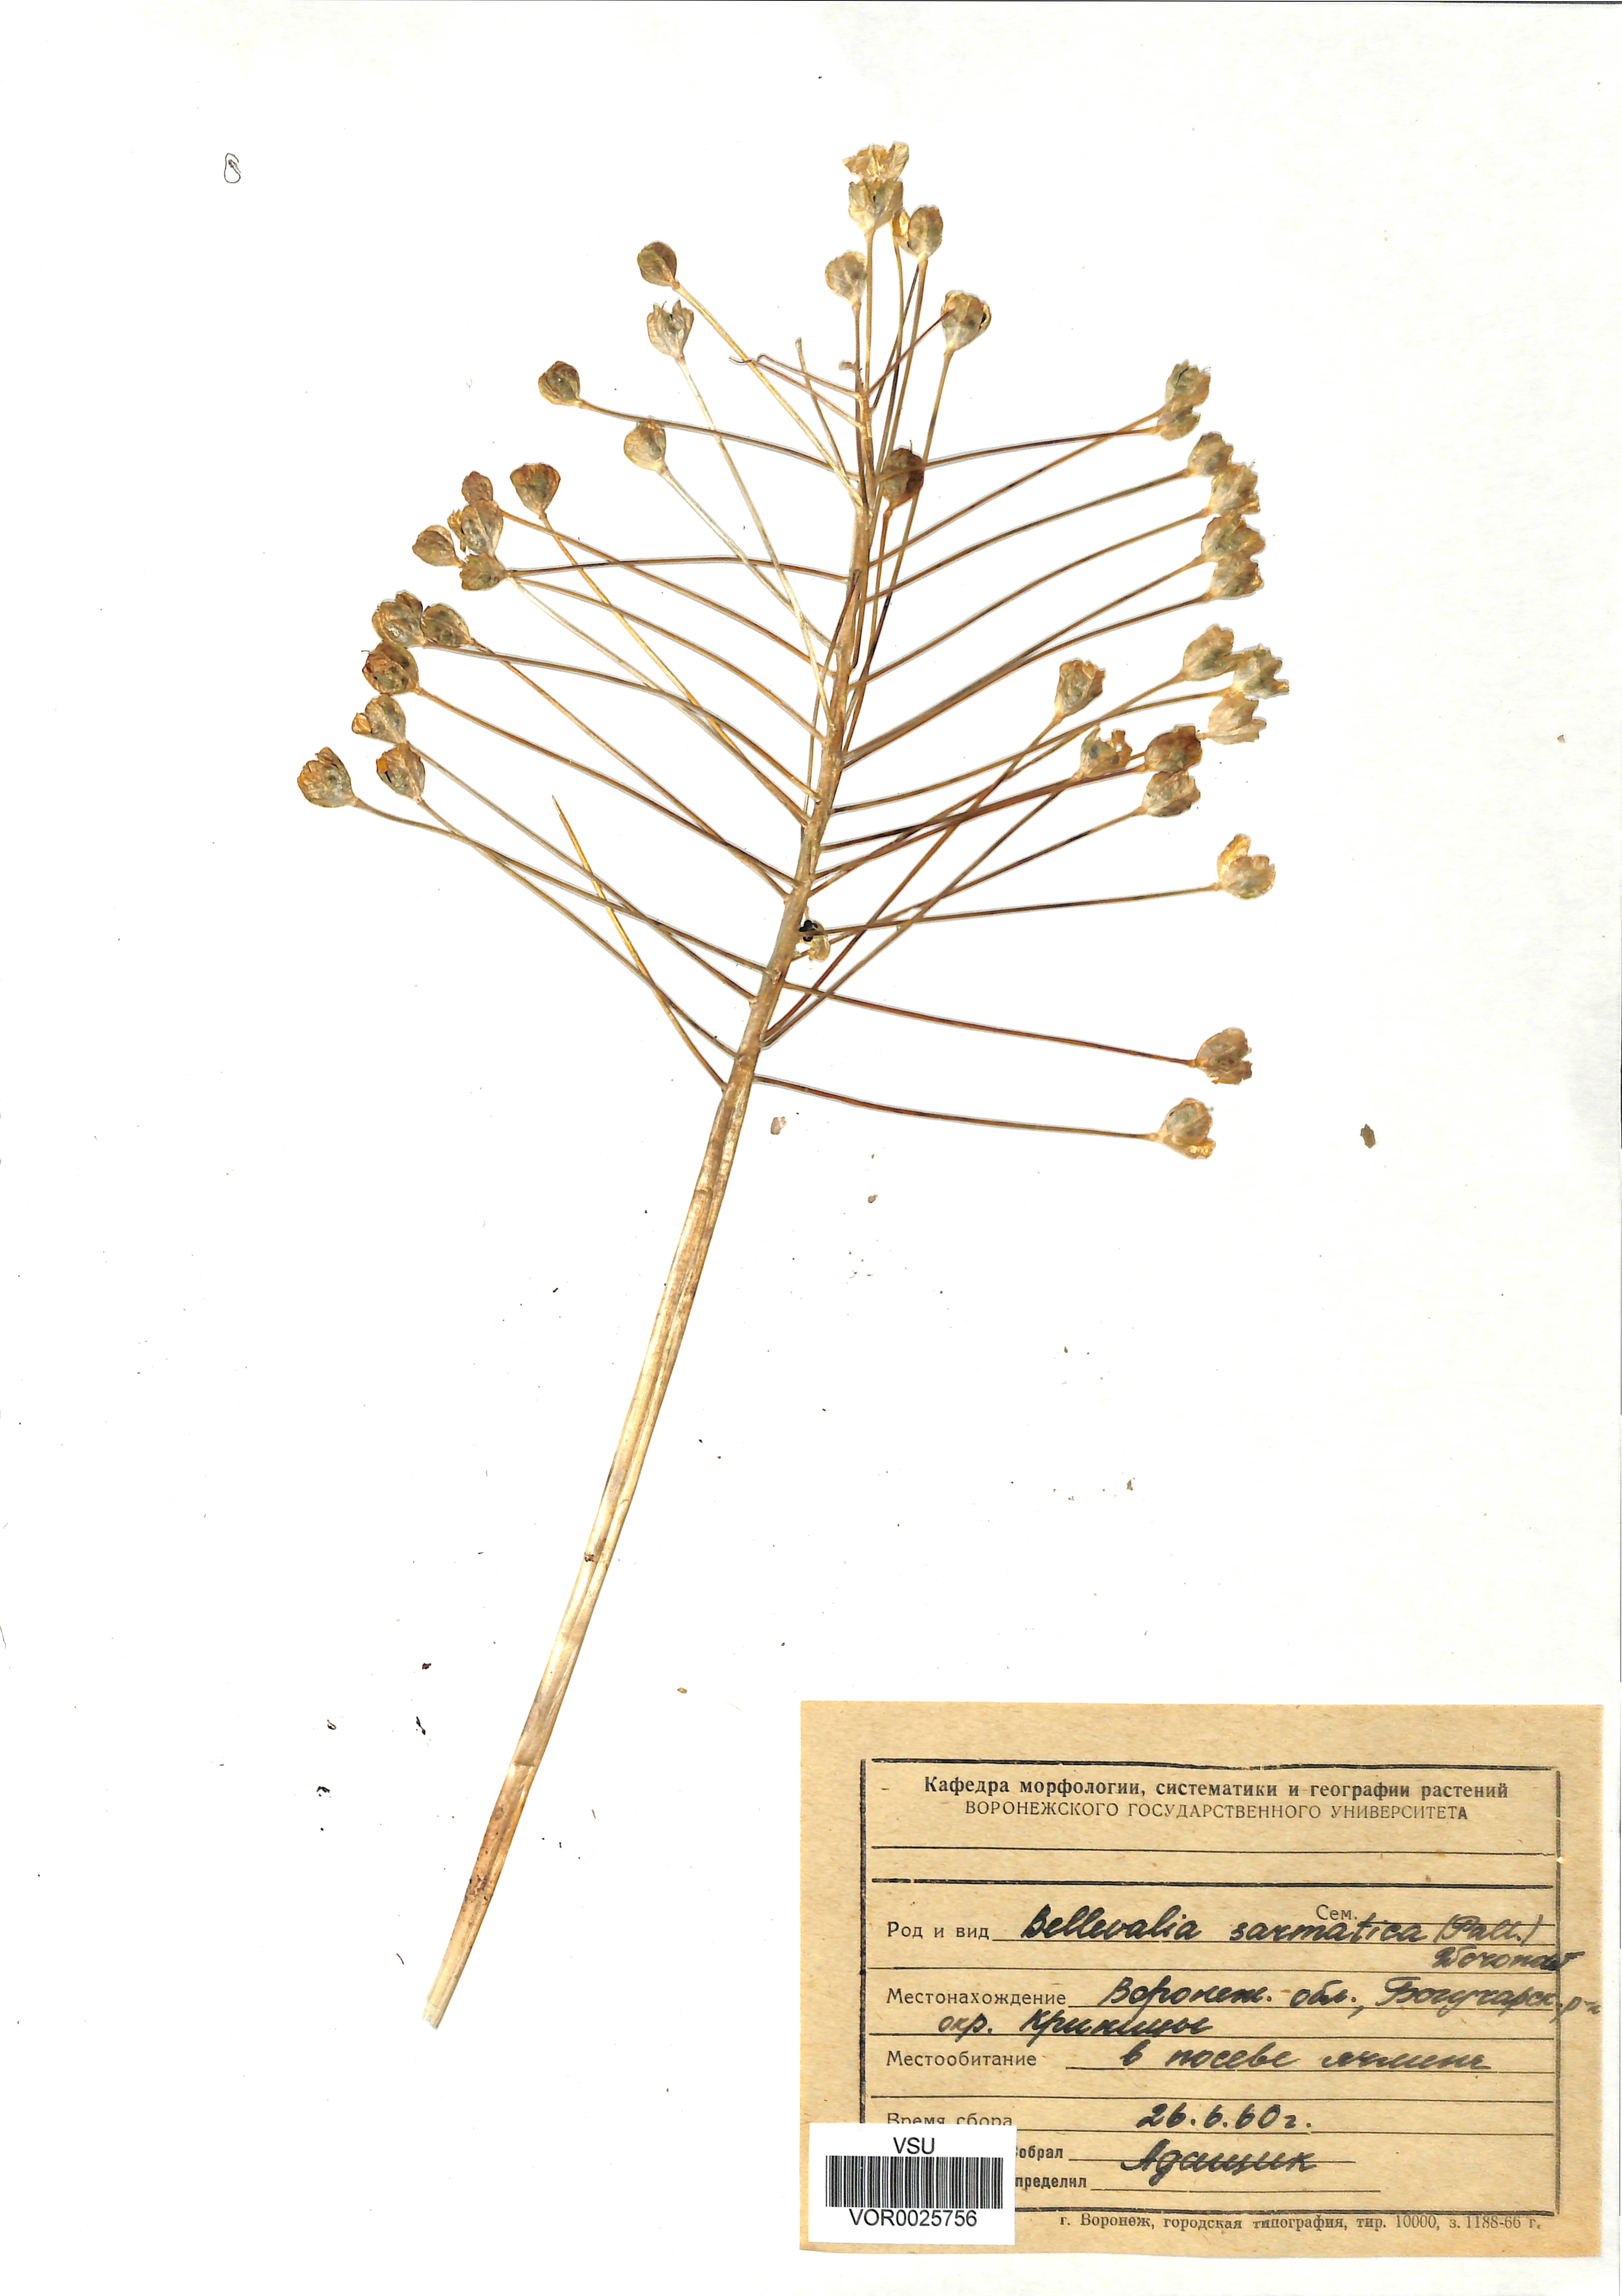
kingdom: Plantae
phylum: Tracheophyta
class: Liliopsida
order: Asparagales
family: Asparagaceae
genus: Bellevalia
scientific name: Bellevalia speciosa
